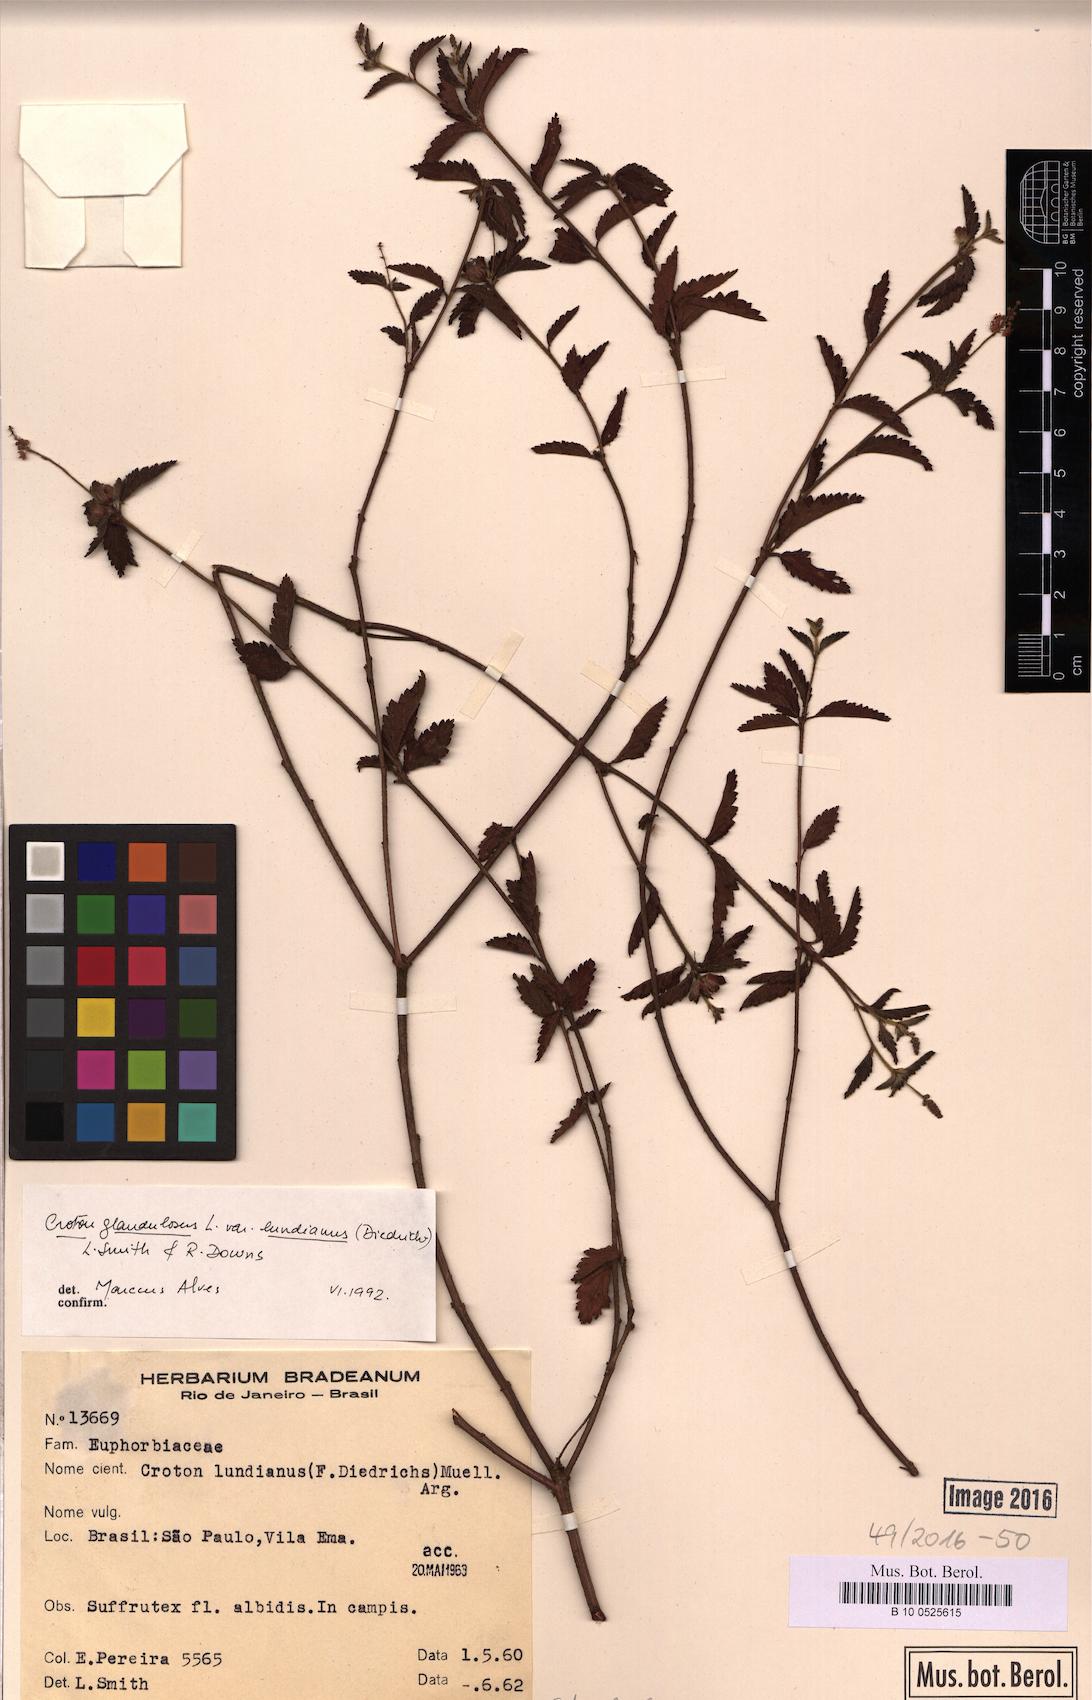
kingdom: Plantae
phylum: Tracheophyta
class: Magnoliopsida
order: Malpighiales
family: Euphorbiaceae
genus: Croton
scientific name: Croton lundianus
